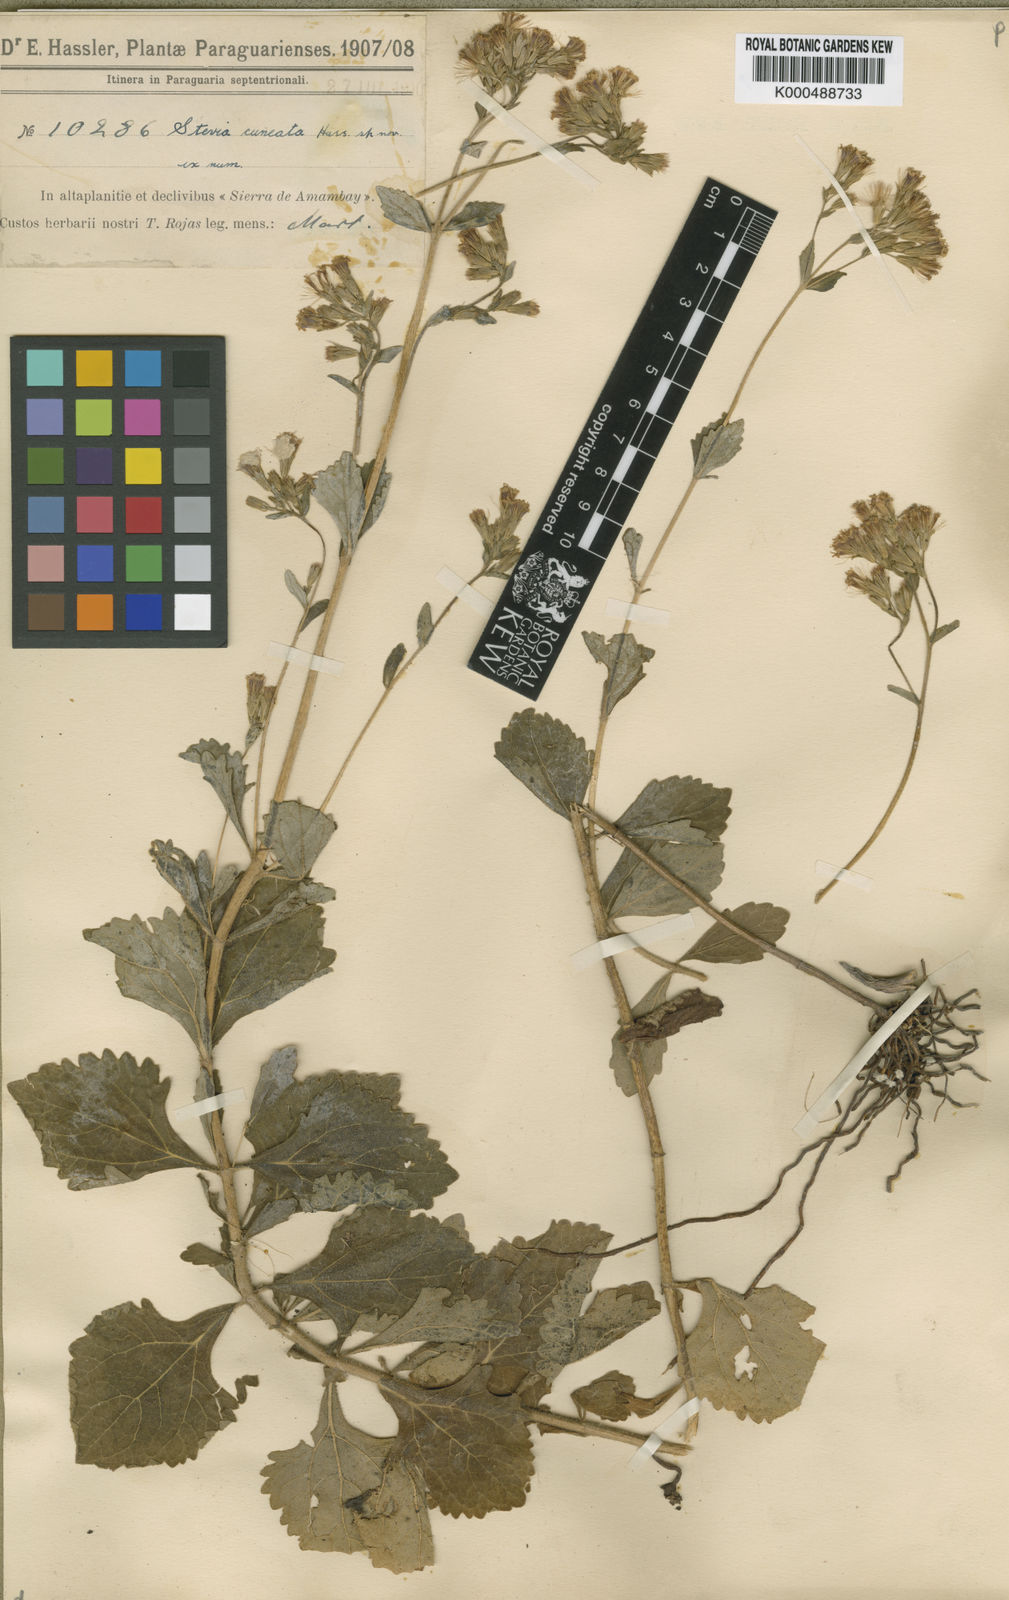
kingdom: Plantae
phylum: Tracheophyta
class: Magnoliopsida
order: Asterales
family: Asteraceae
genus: Stevia
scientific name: Stevia cuneata
